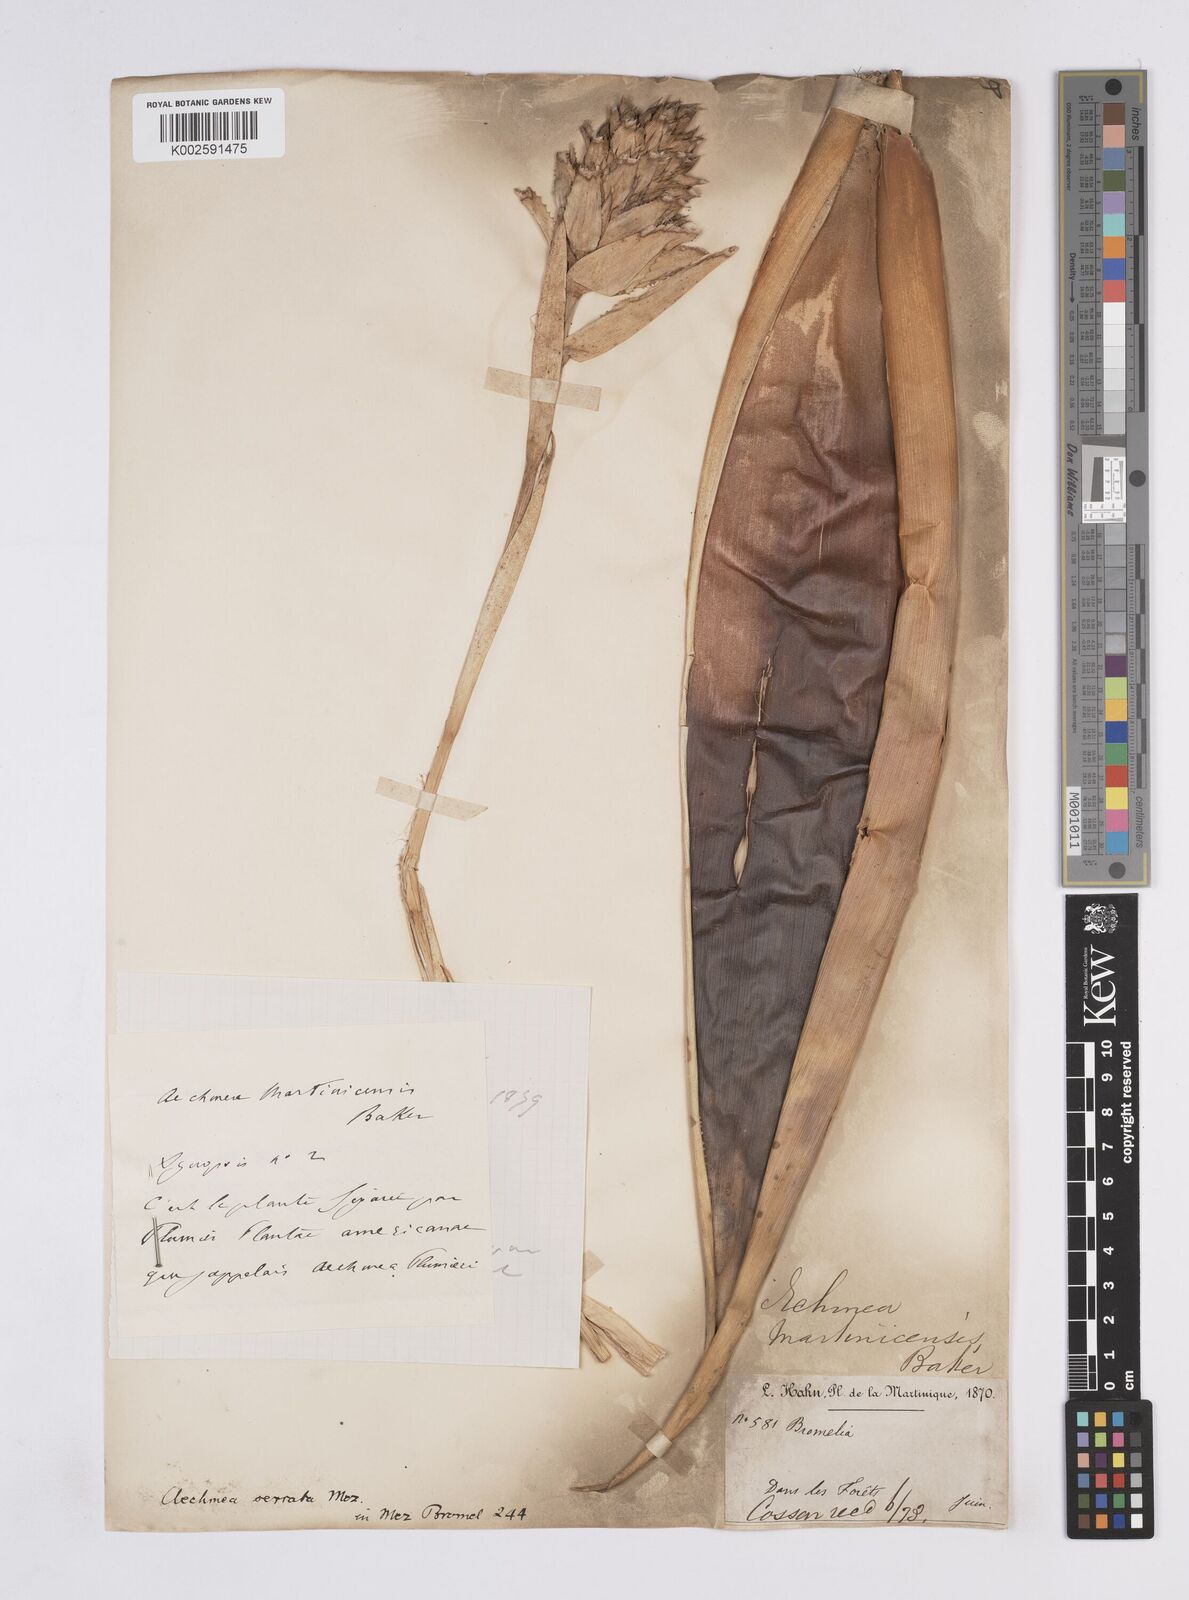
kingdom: Plantae
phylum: Tracheophyta
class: Liliopsida
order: Poales
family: Bromeliaceae
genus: Aechmea
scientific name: Aechmea serrata
